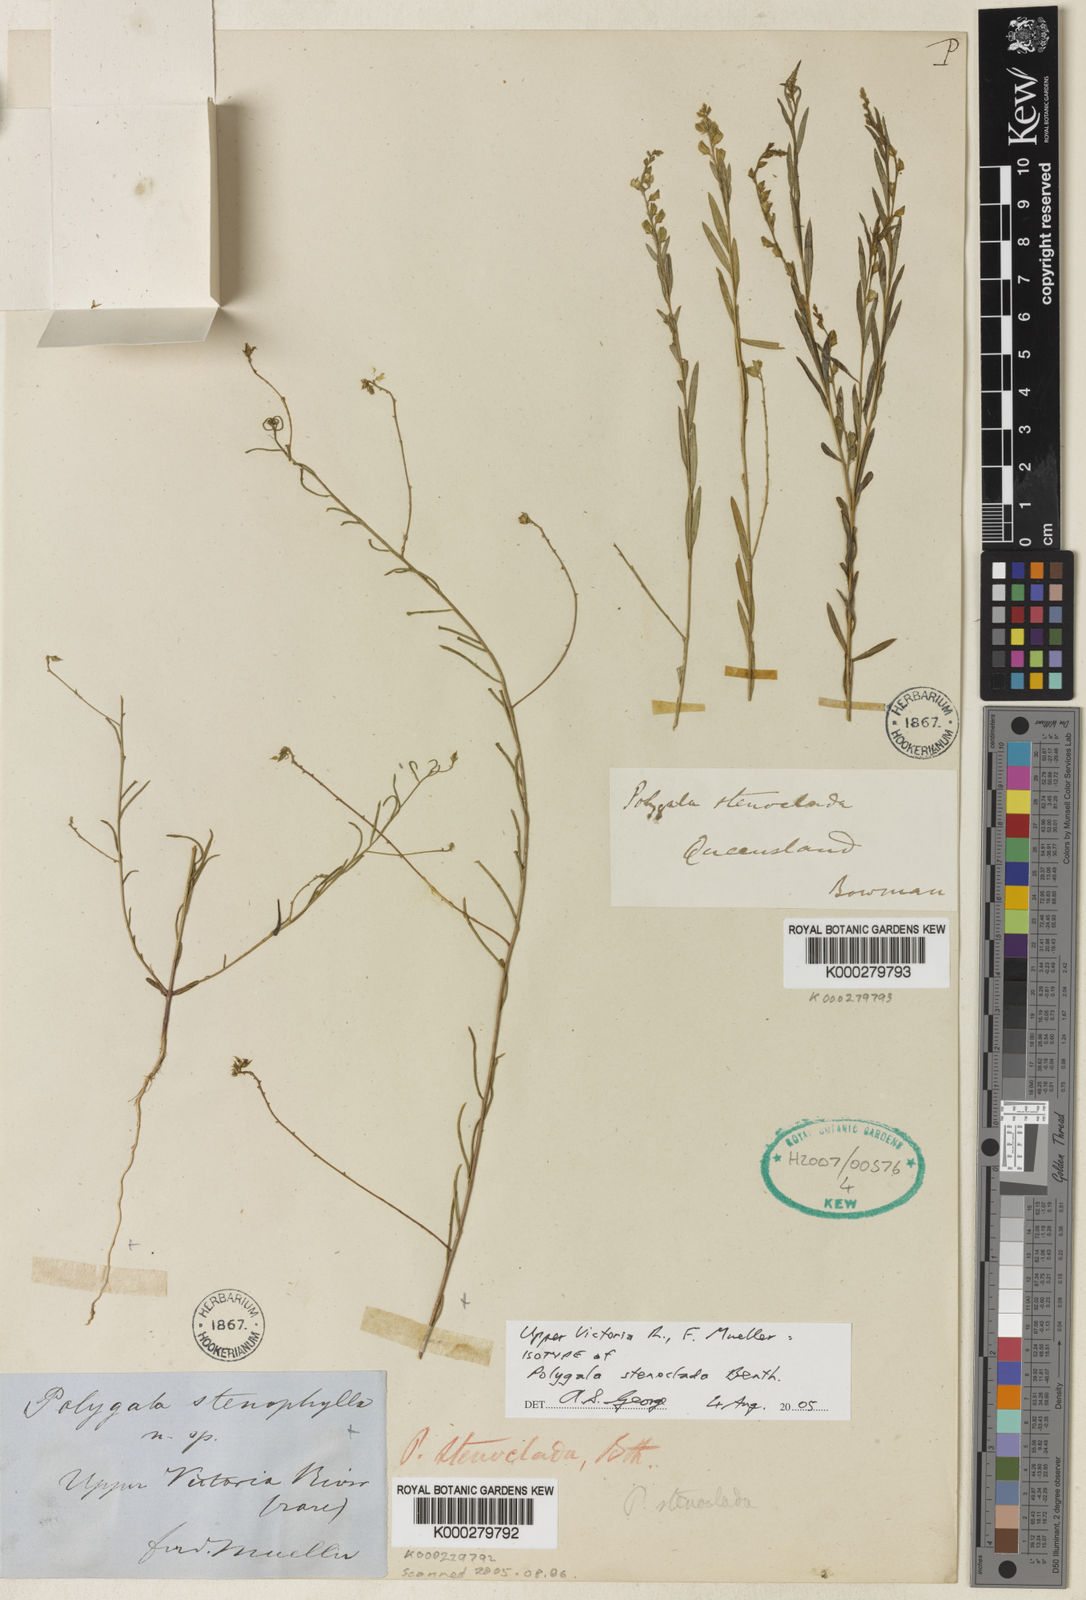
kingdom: Plantae
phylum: Tracheophyta
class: Magnoliopsida
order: Fabales
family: Polygalaceae
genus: Polygala
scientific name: Polygala stenoclada
